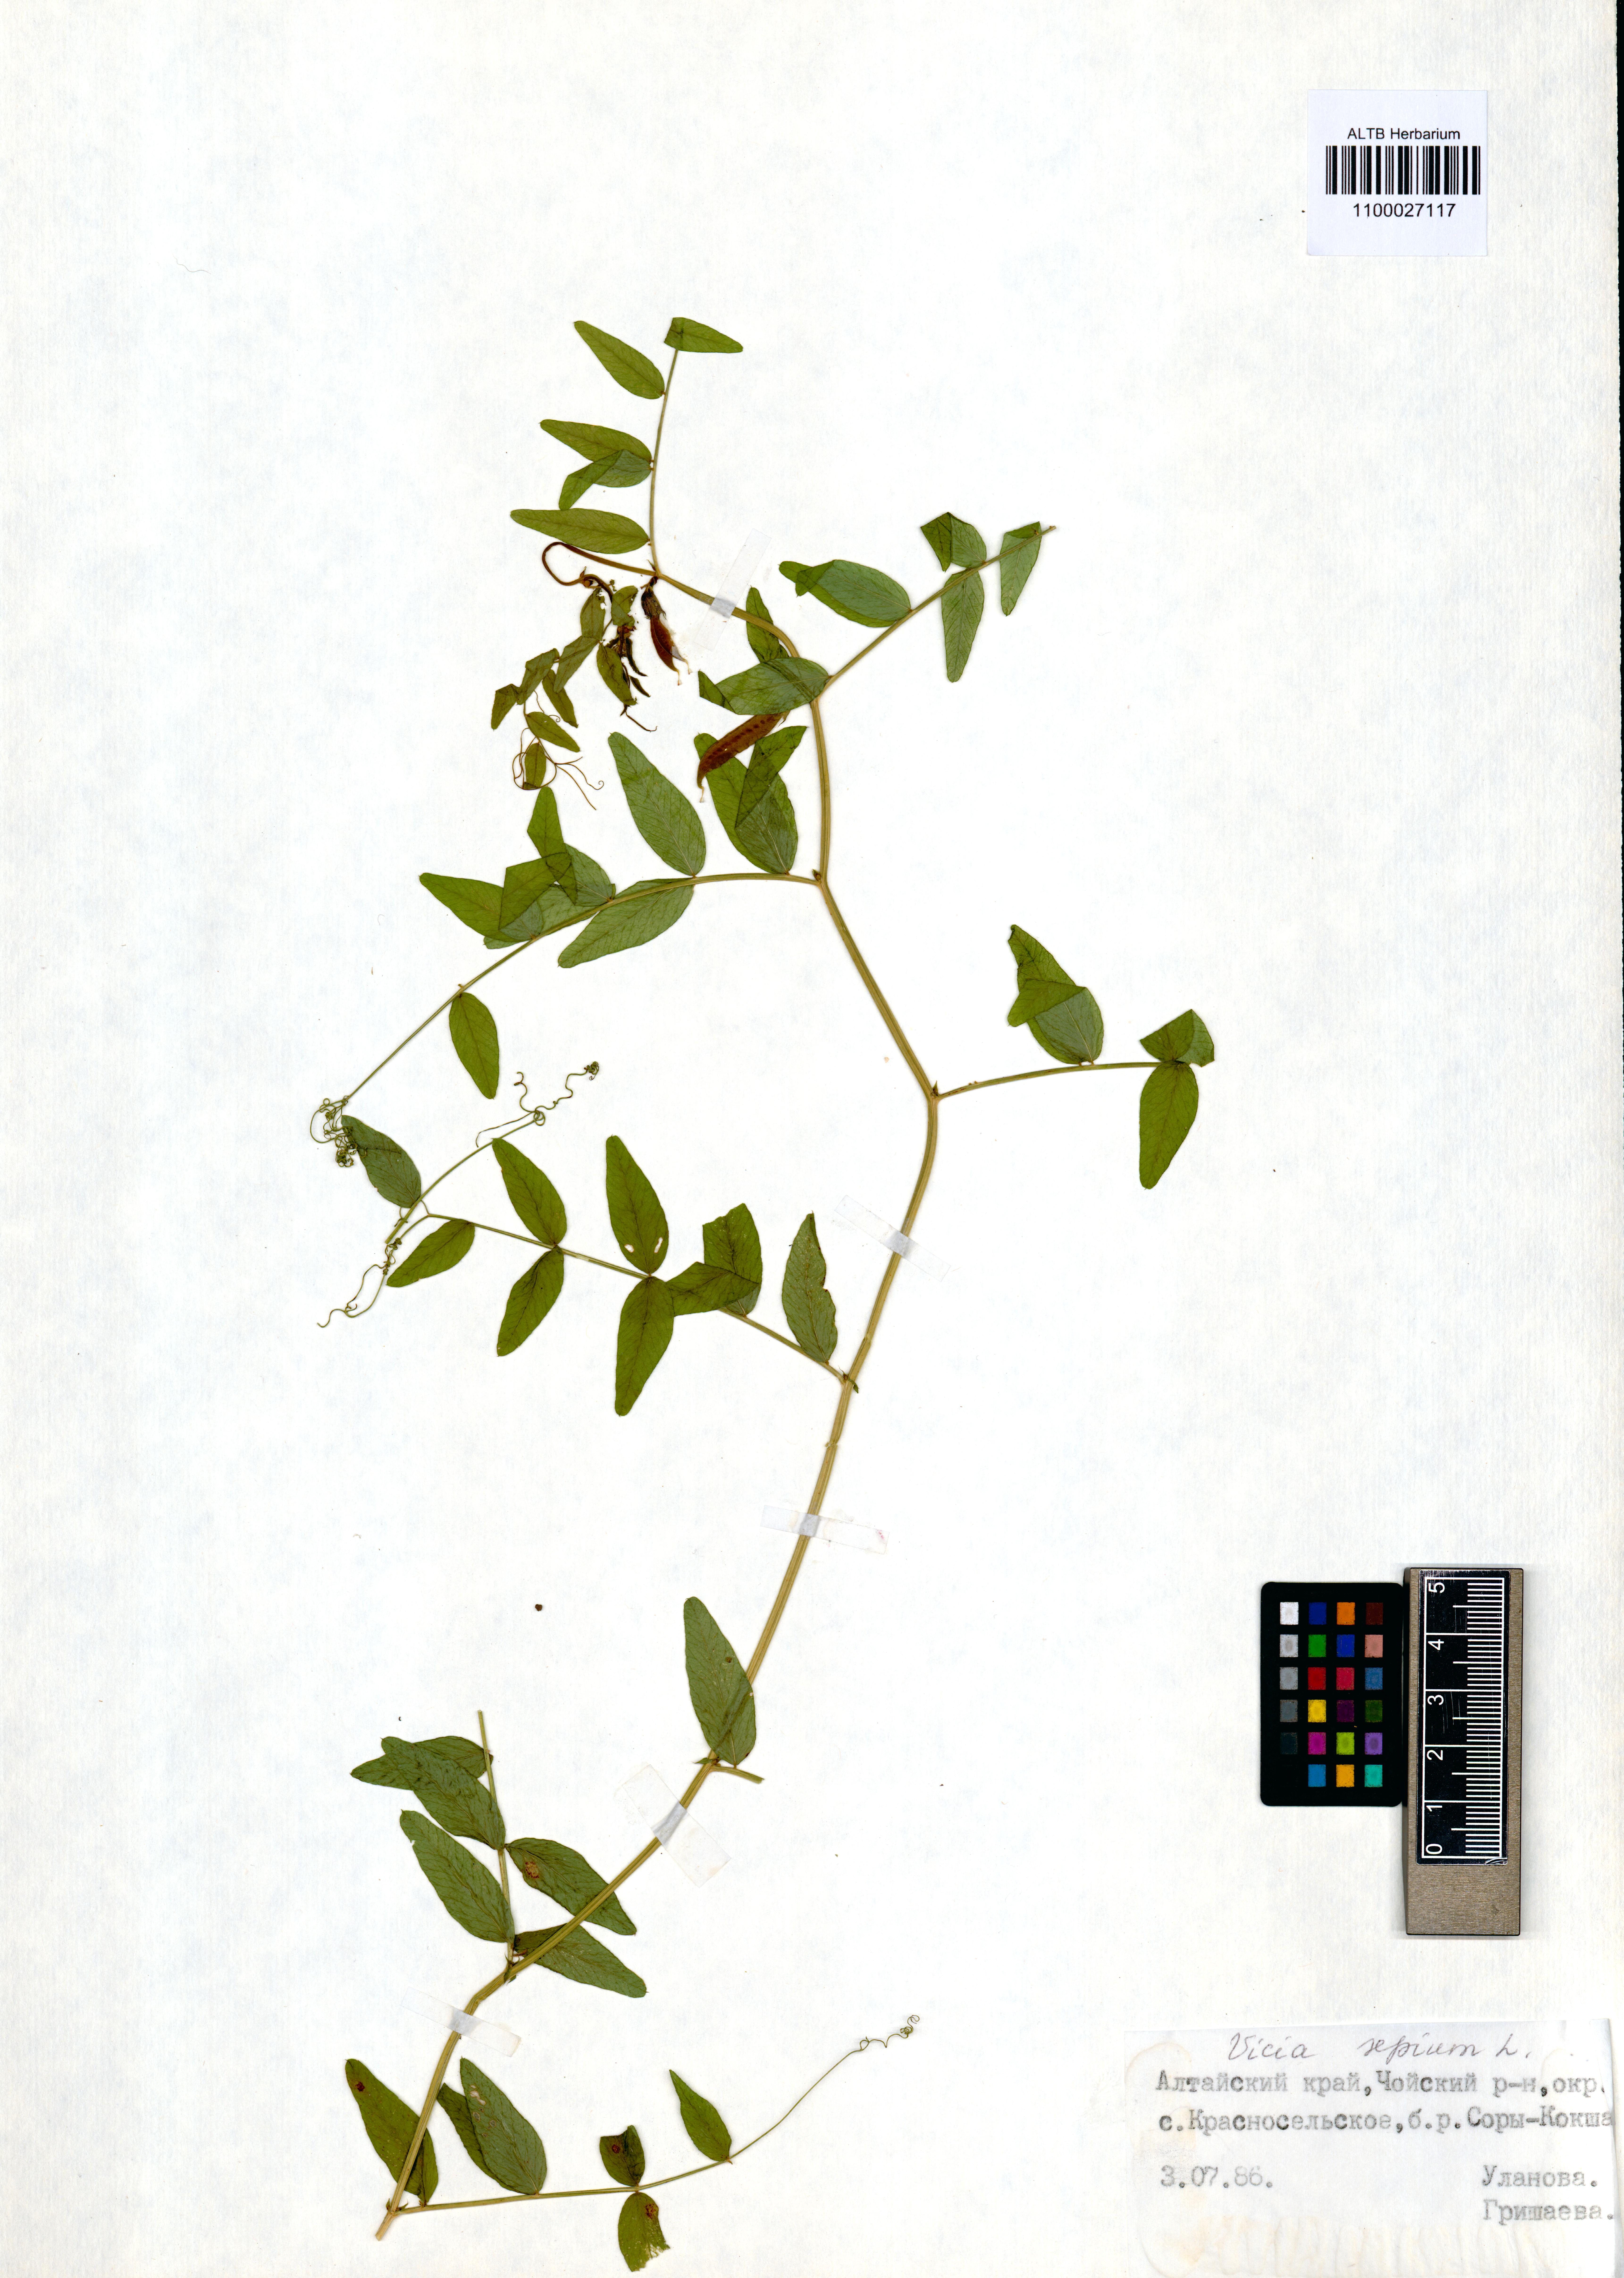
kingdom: Plantae
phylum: Tracheophyta
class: Magnoliopsida
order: Fabales
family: Fabaceae
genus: Vicia
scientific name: Vicia sepium
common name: Bush vetch
